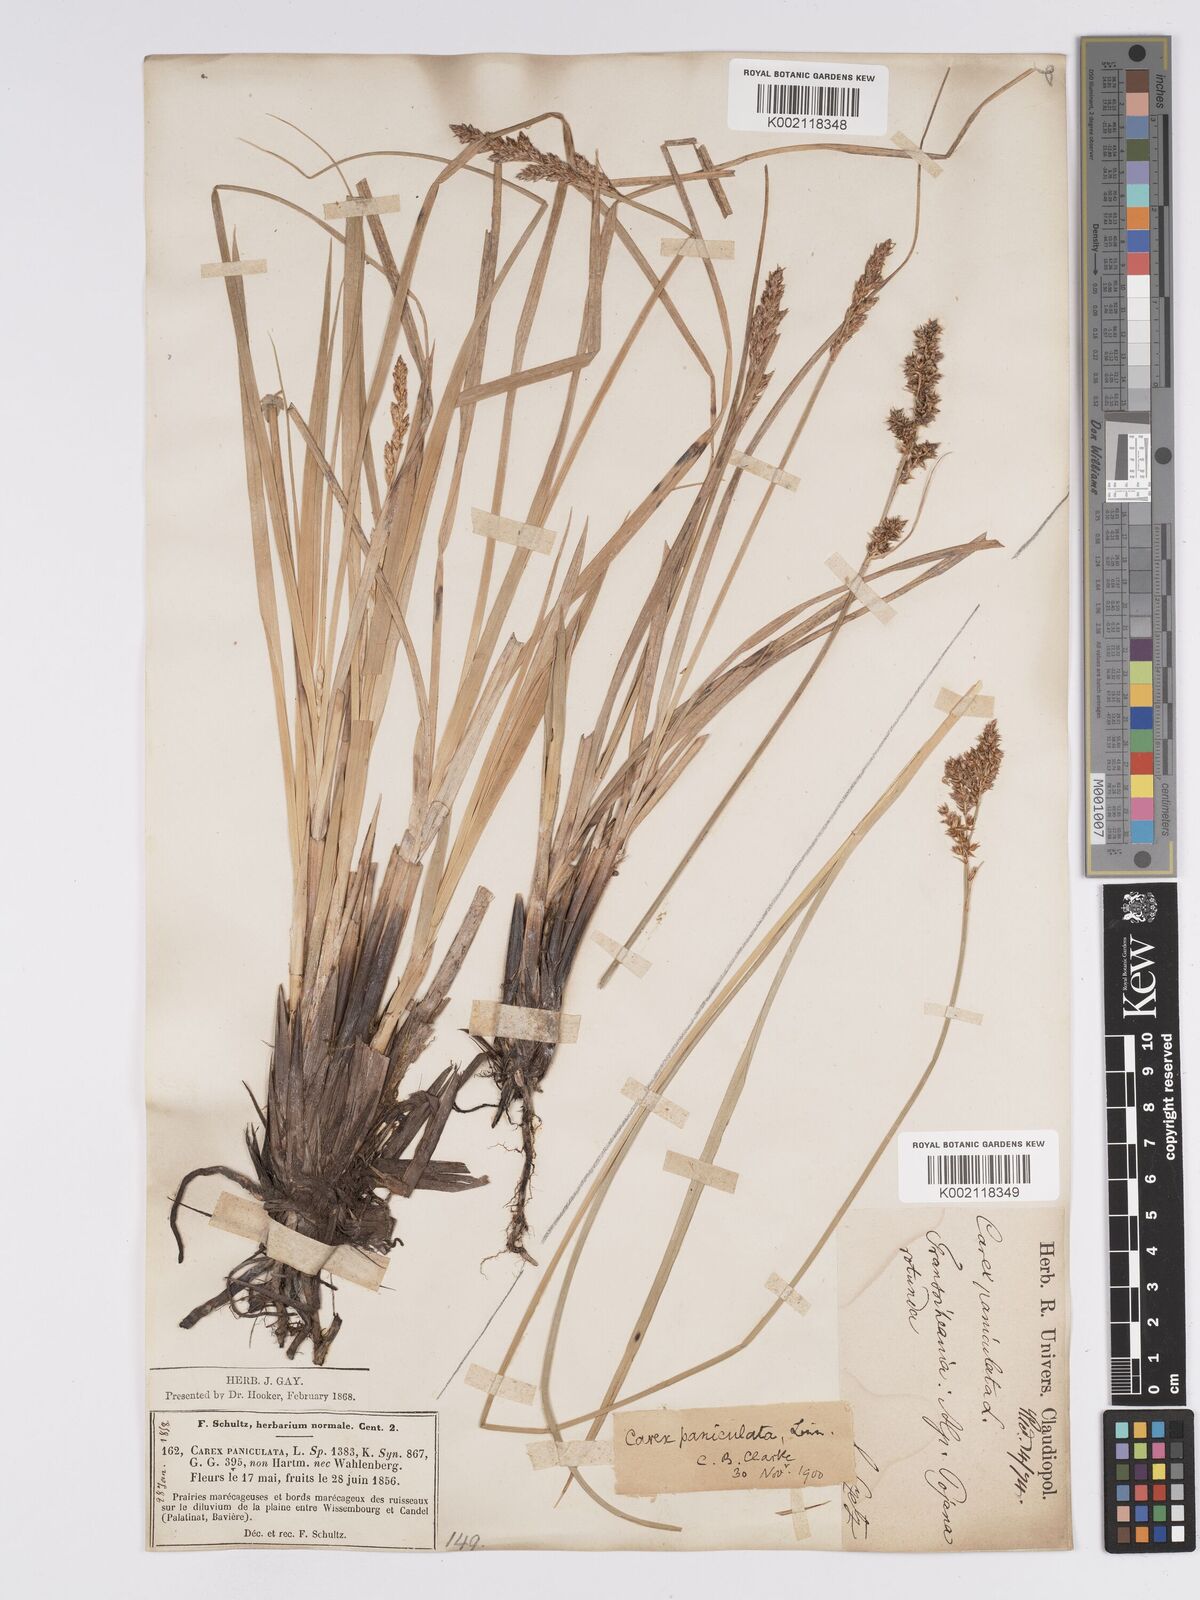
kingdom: Plantae
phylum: Tracheophyta
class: Liliopsida
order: Poales
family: Cyperaceae
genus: Carex
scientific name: Carex paniculata
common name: Greater tussock-sedge
